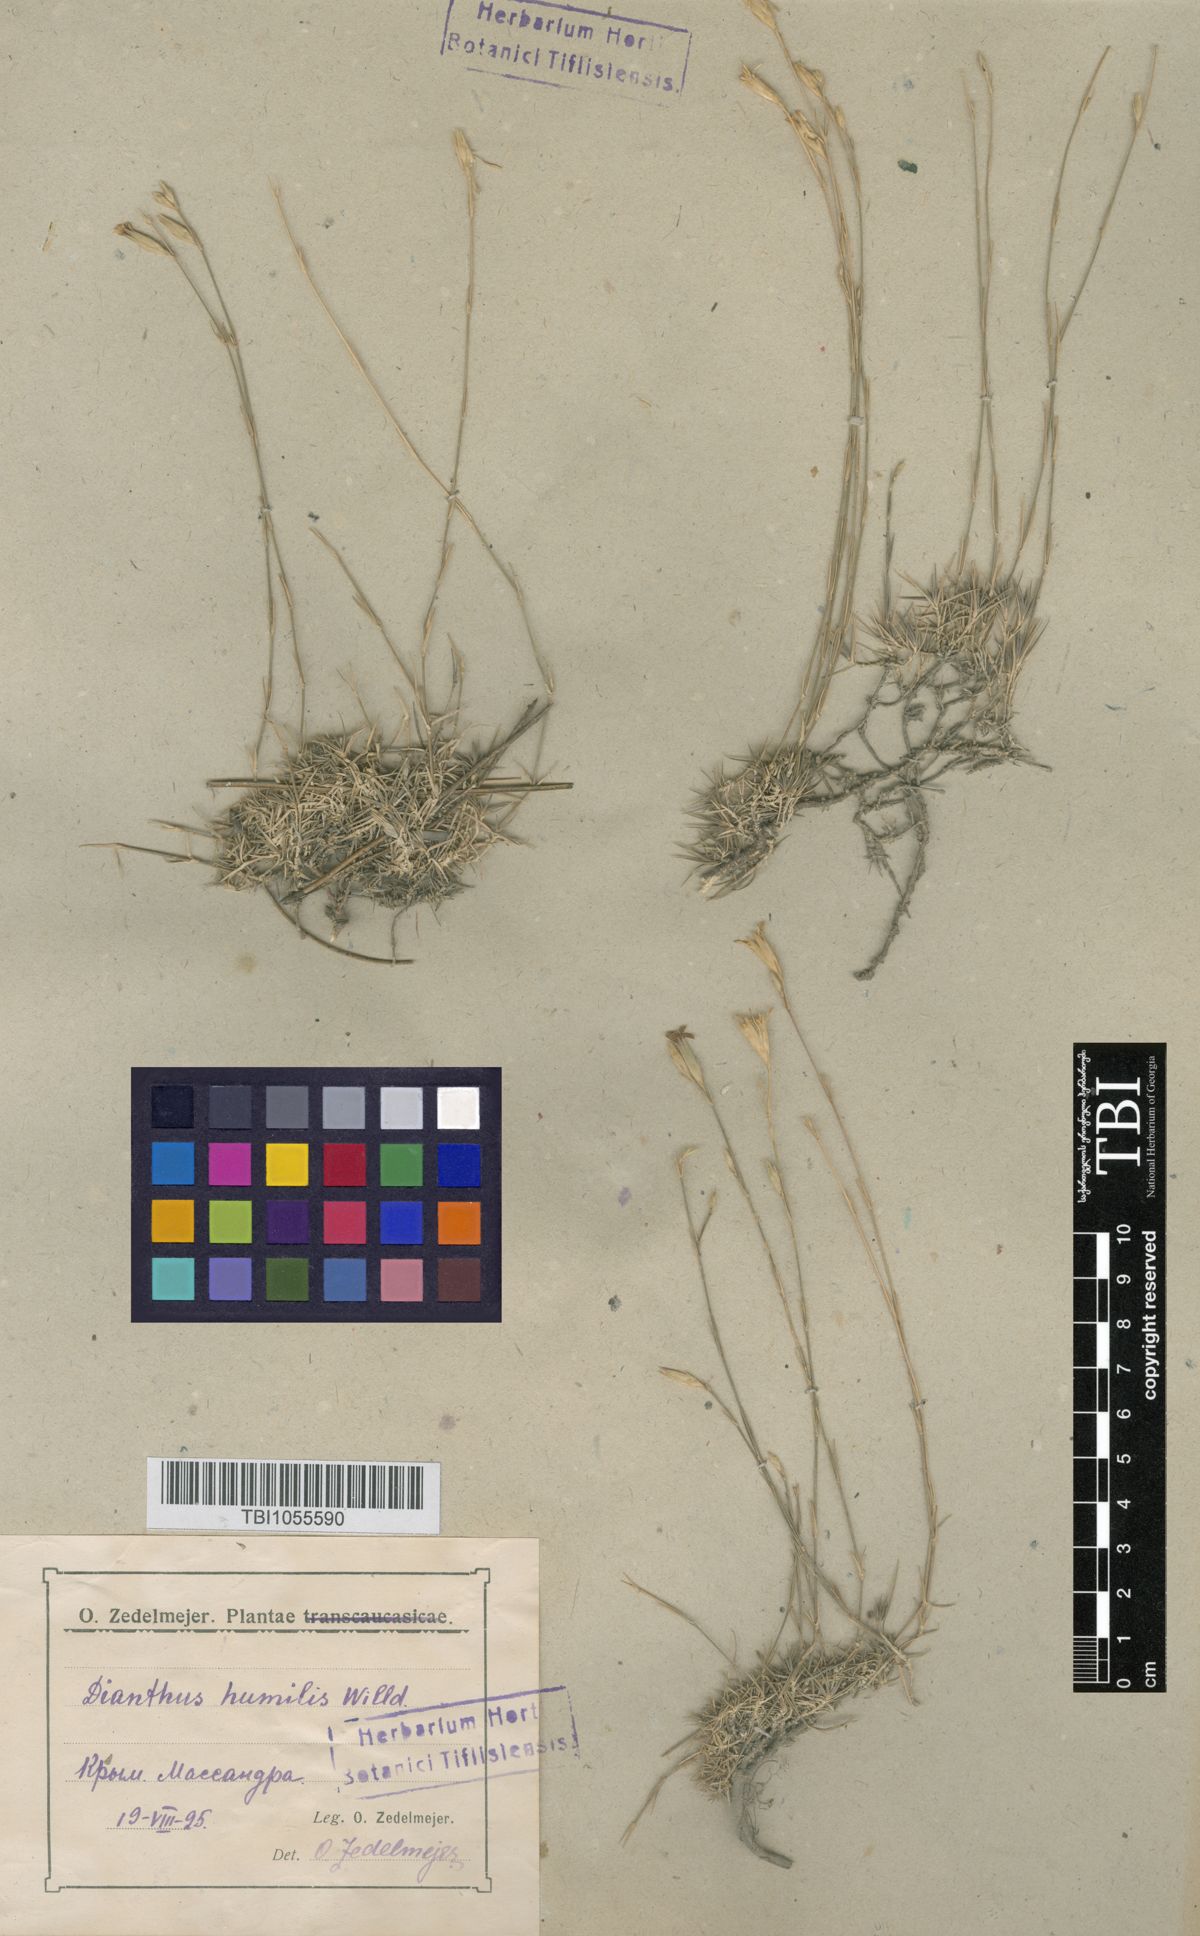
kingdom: Plantae
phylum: Tracheophyta
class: Magnoliopsida
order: Caryophyllales
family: Caryophyllaceae
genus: Dianthus
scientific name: Dianthus humilis
